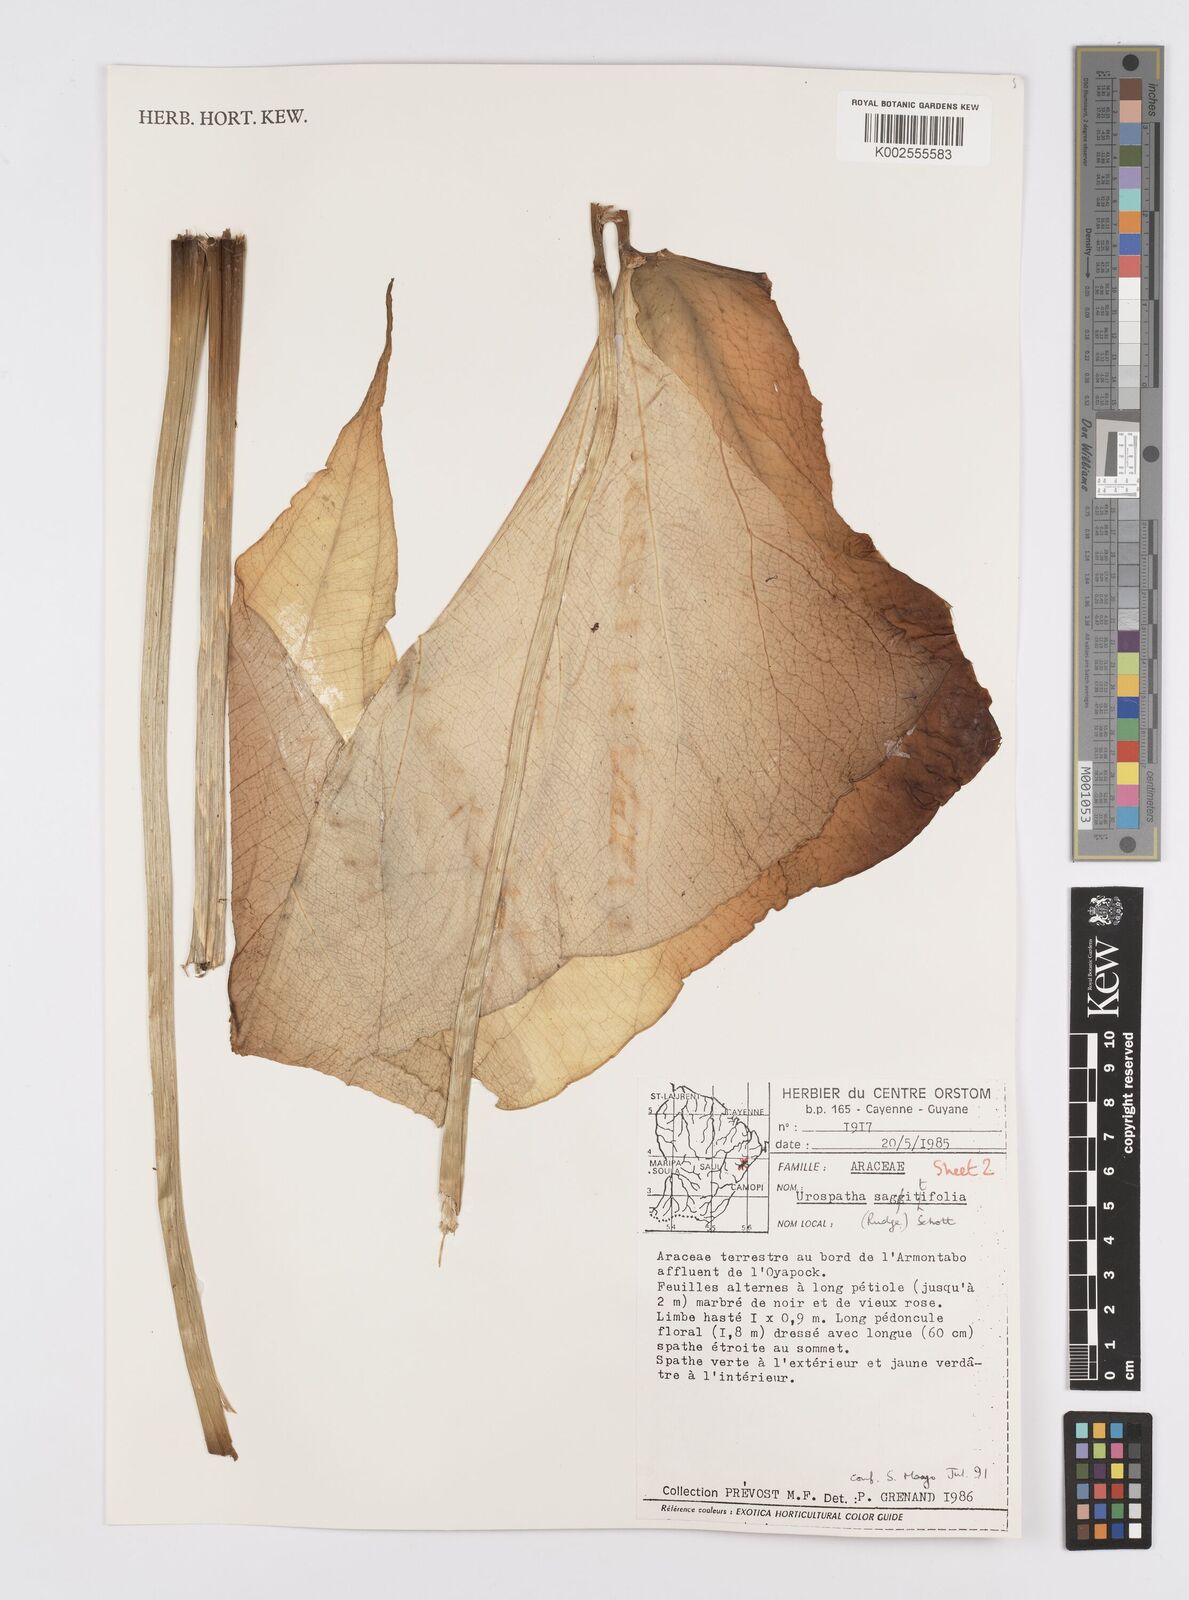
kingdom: Plantae
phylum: Tracheophyta
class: Liliopsida
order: Alismatales
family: Araceae
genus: Urospatha
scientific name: Urospatha sagittifolia
